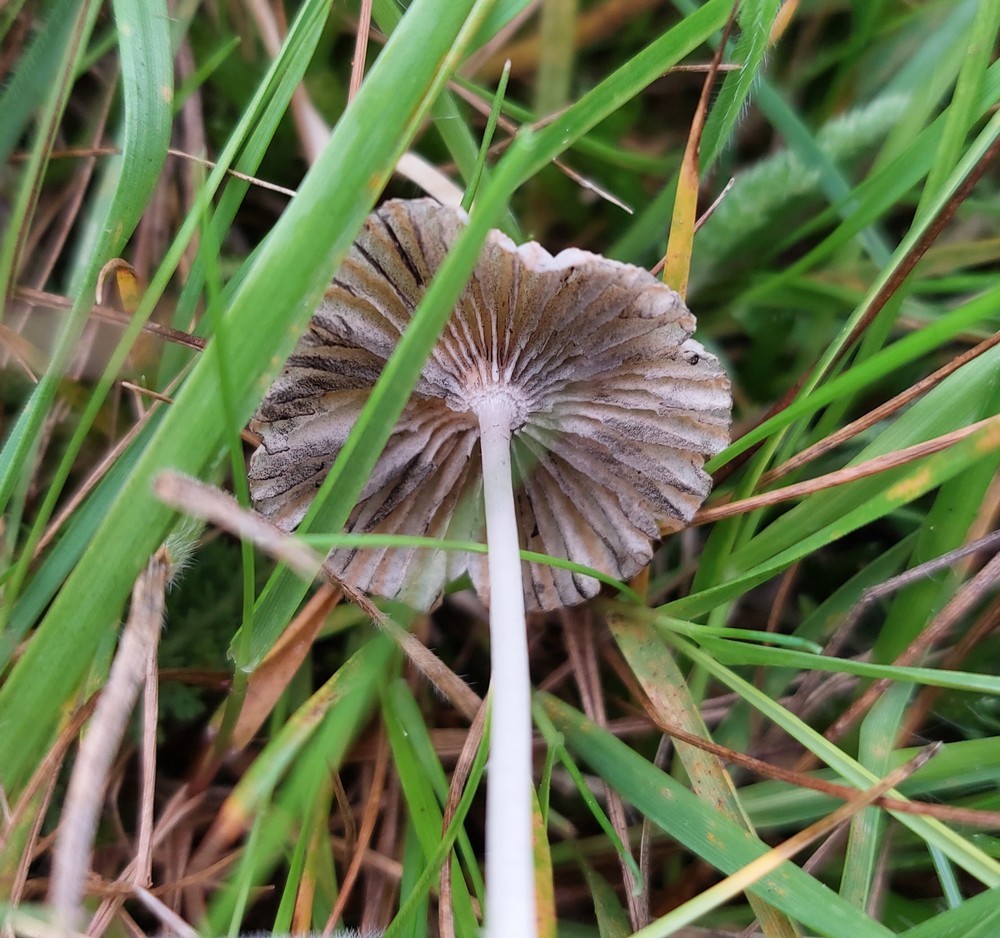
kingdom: Fungi
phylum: Basidiomycota
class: Agaricomycetes
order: Agaricales
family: Psathyrellaceae
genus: Parasola
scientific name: Parasola schroeteri
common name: bredsporet hjulhat
